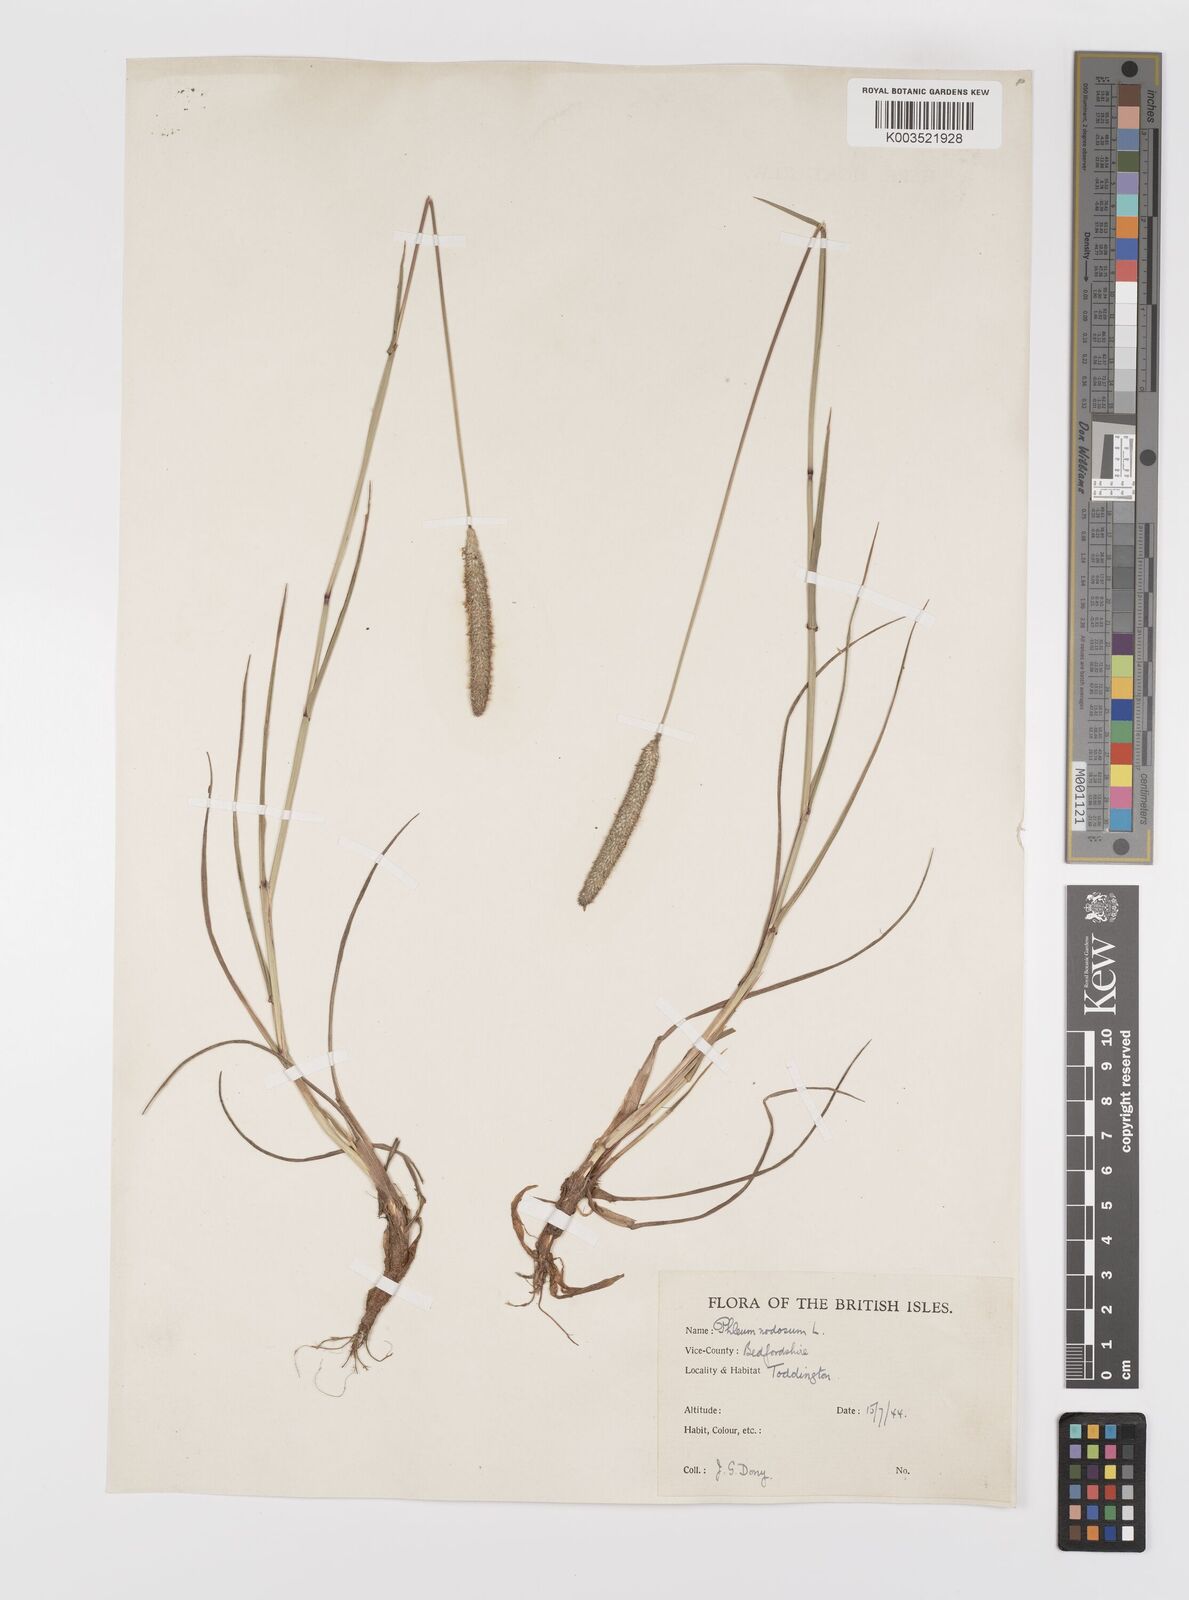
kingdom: Plantae
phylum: Tracheophyta
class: Liliopsida
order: Poales
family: Poaceae
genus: Phleum
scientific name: Phleum bertolonii
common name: Smaller cat's-tail
